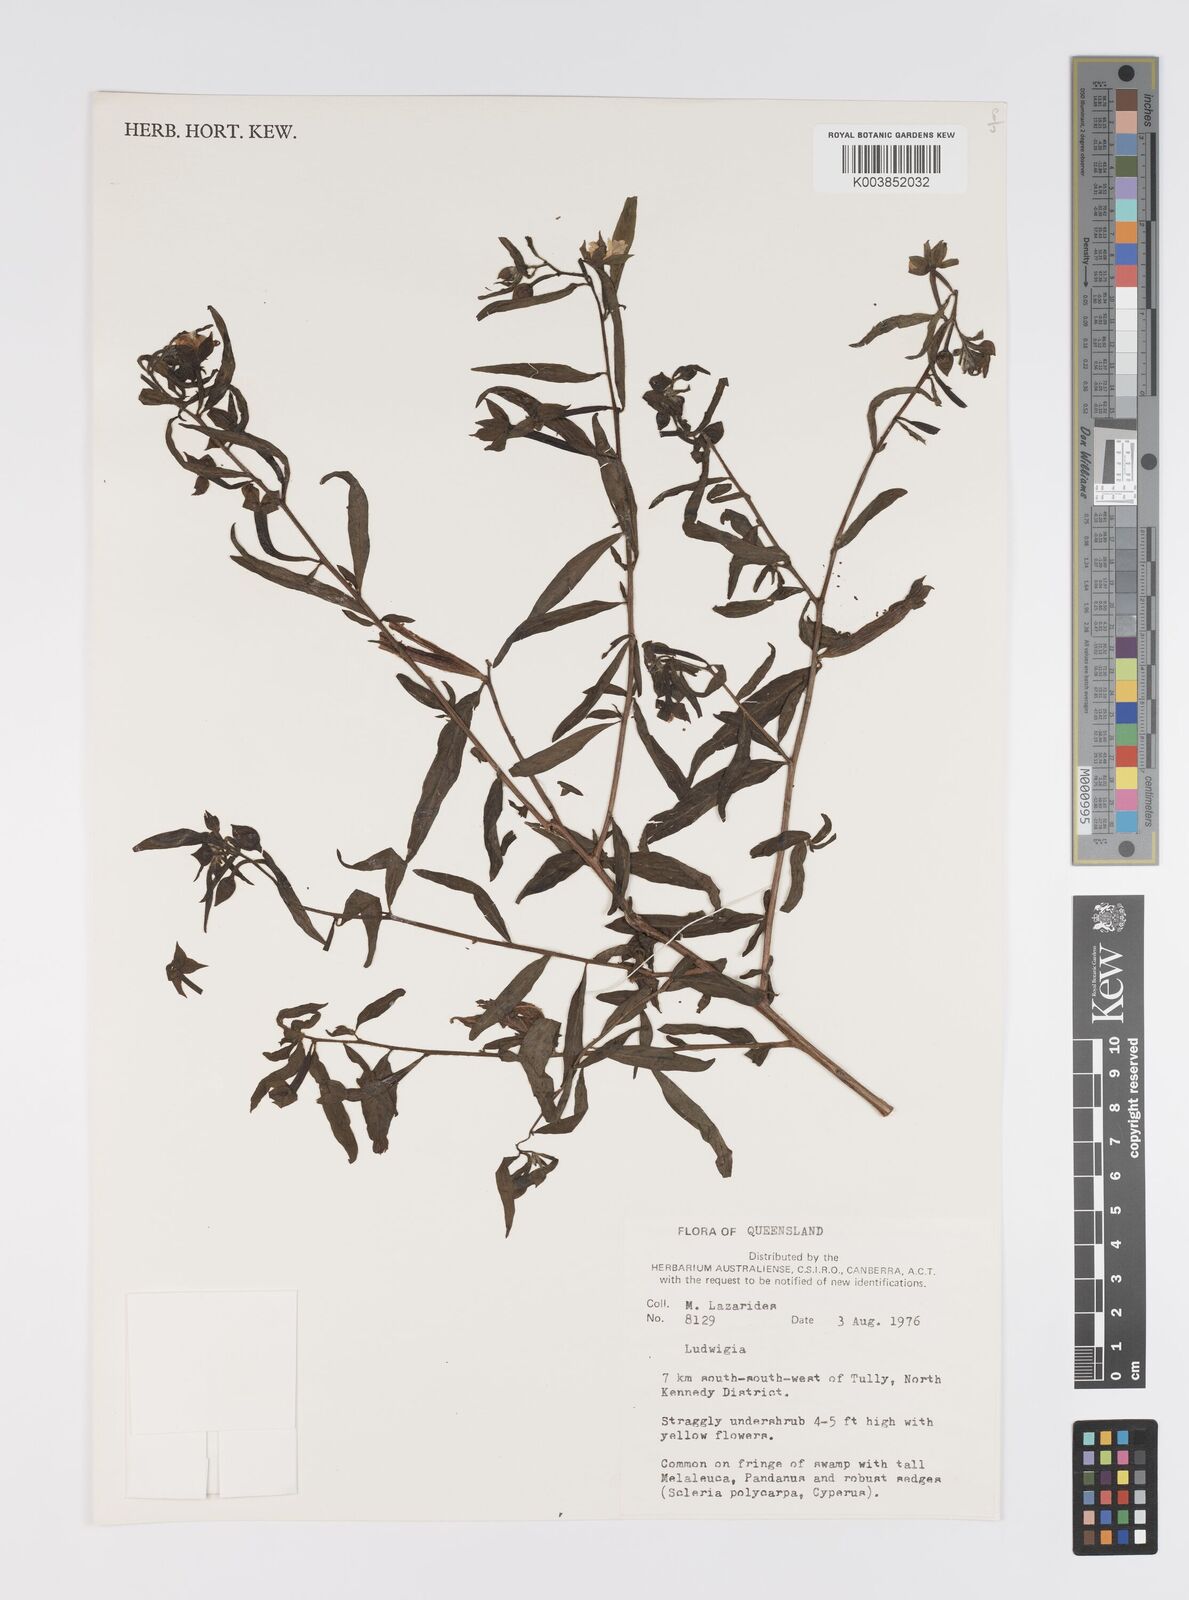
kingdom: Plantae
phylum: Tracheophyta
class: Magnoliopsida
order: Myrtales
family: Onagraceae
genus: Ludwigia
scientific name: Ludwigia
